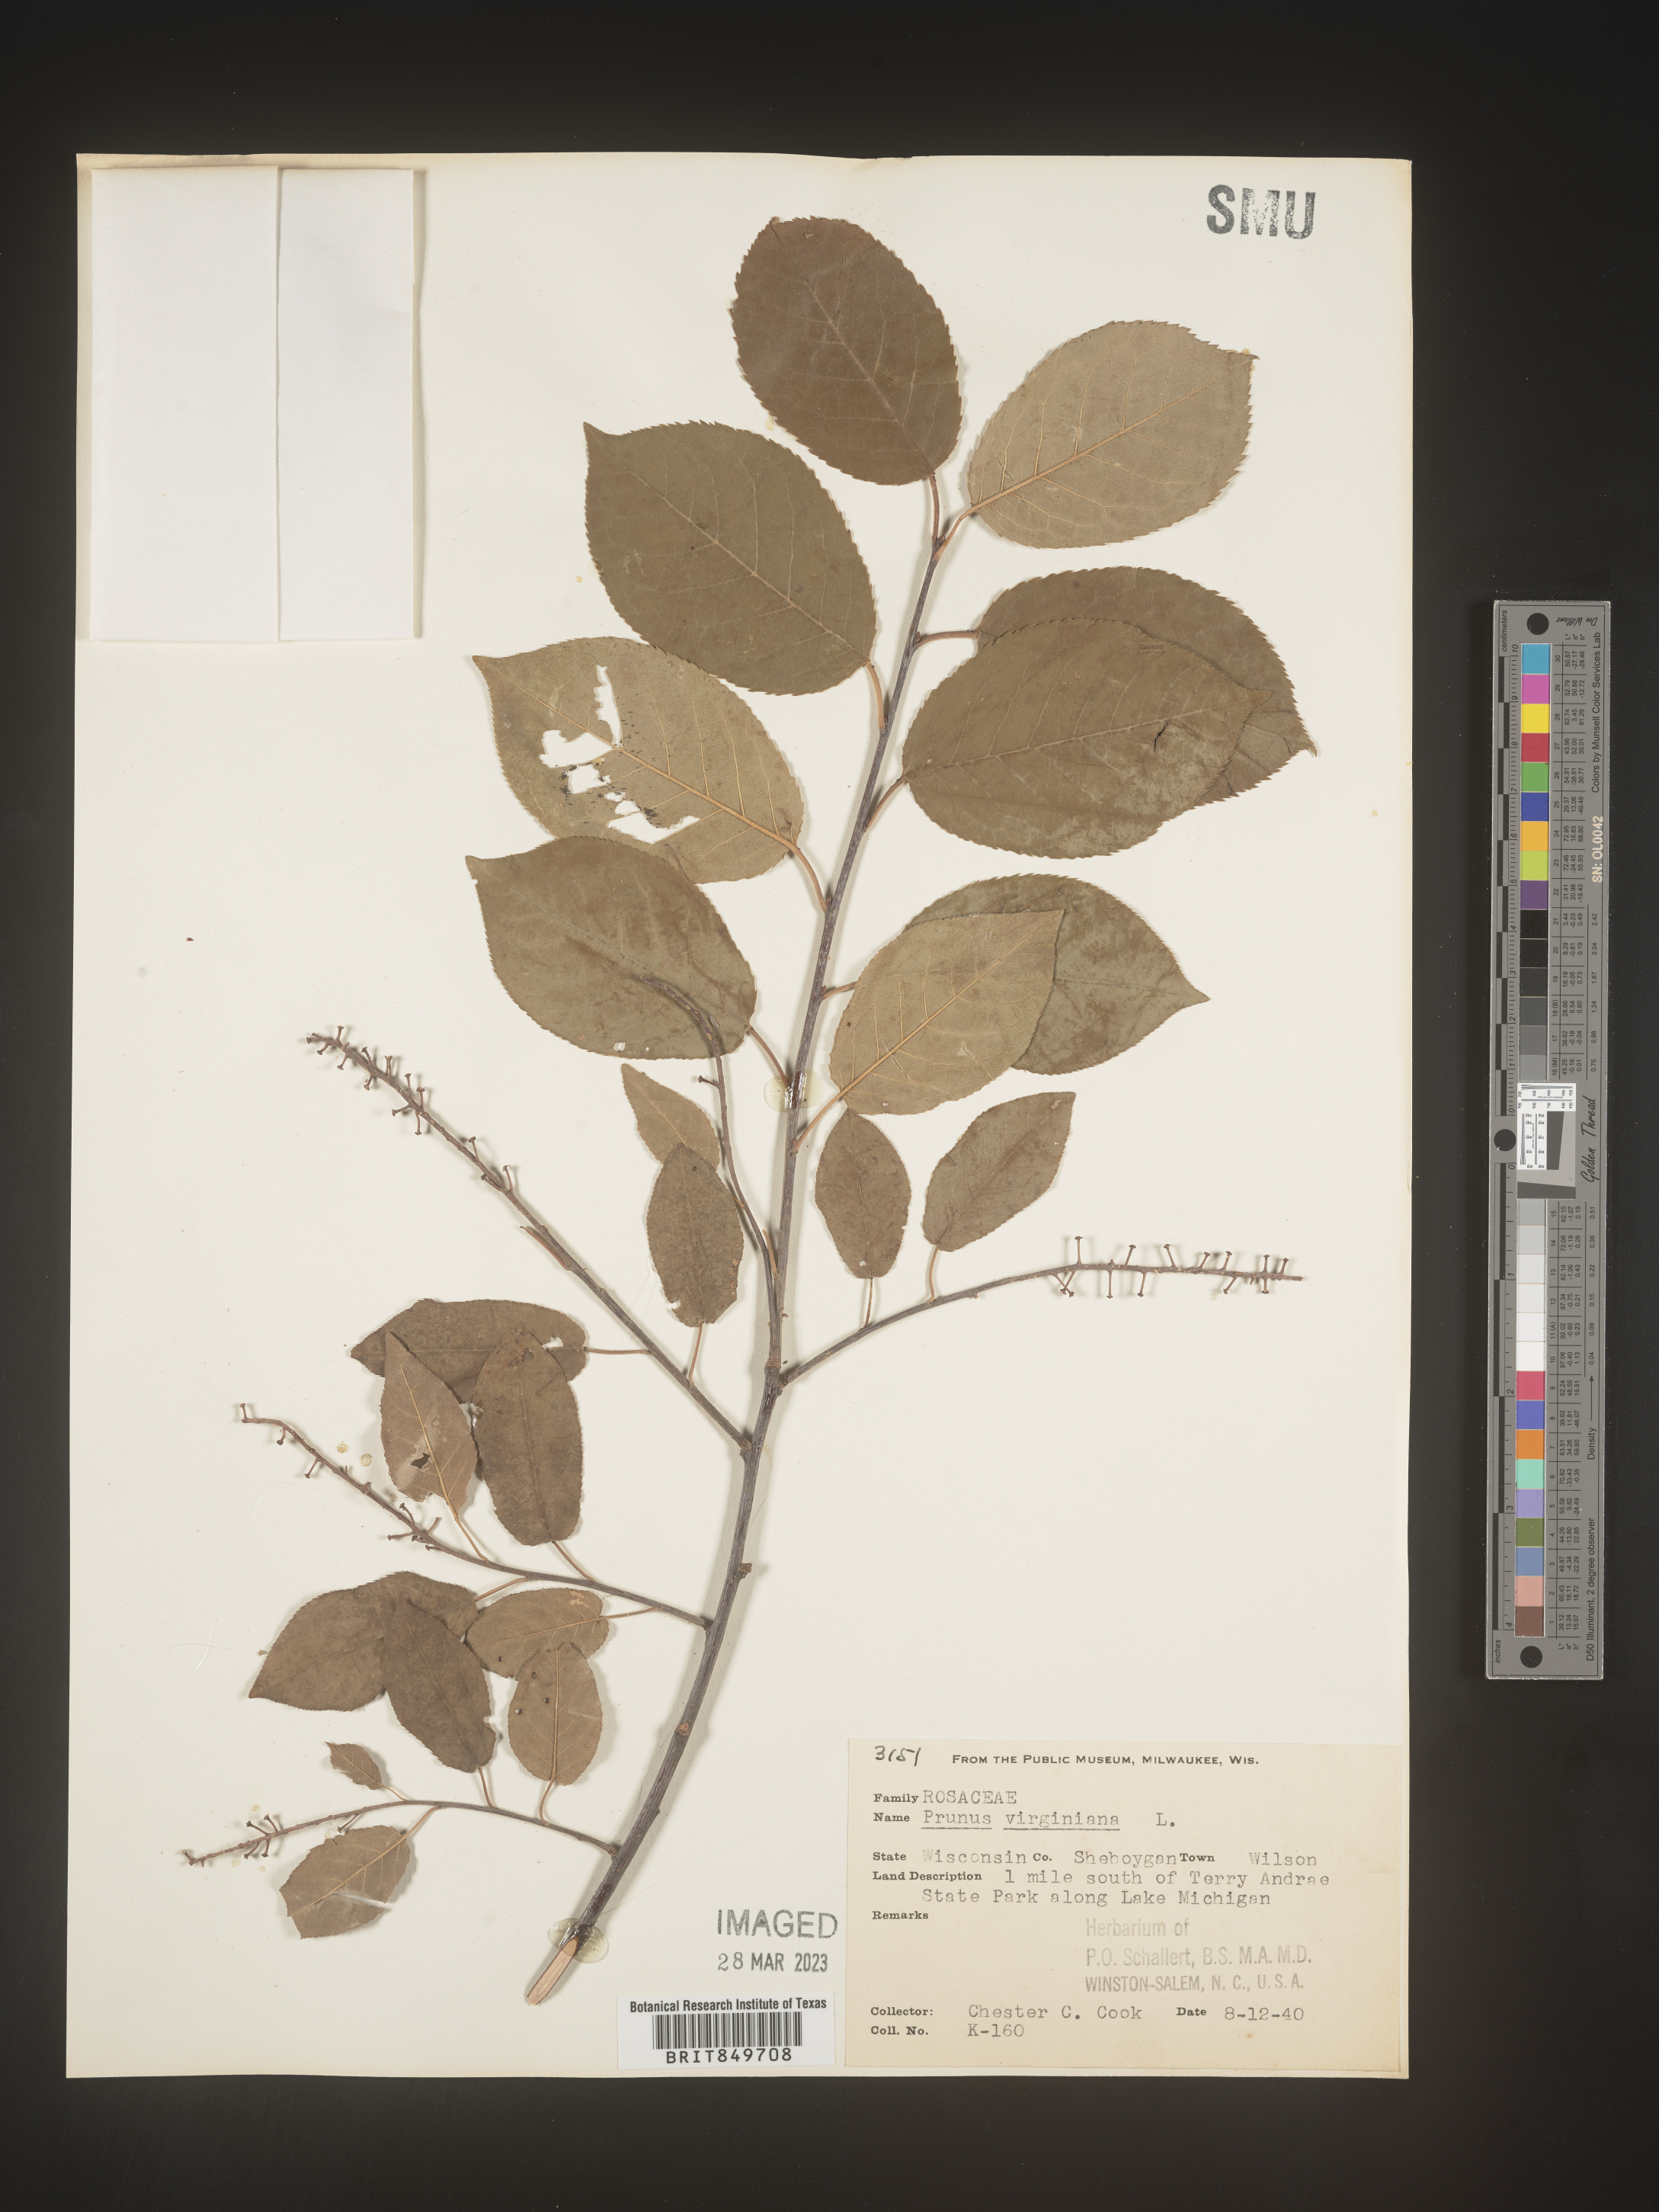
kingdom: Plantae
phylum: Tracheophyta
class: Magnoliopsida
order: Rosales
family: Rosaceae
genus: Prunus
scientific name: Prunus virginiana
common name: Chokecherry
